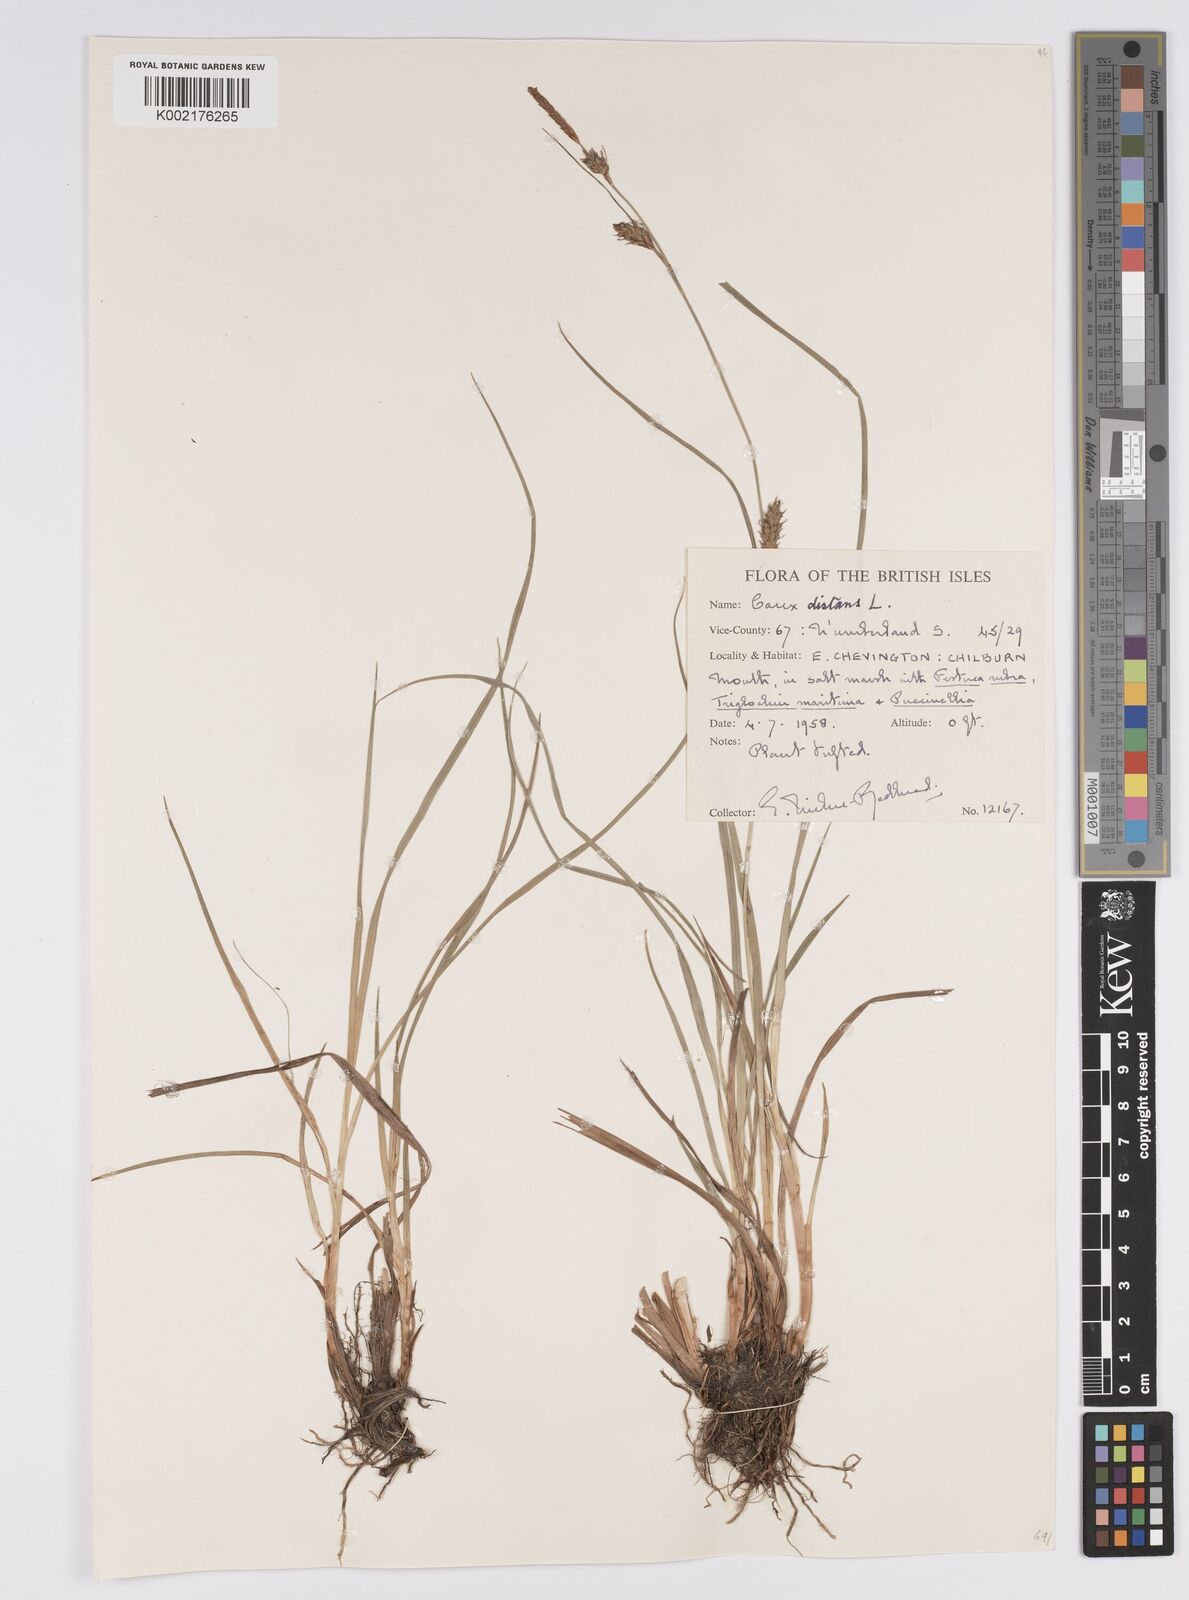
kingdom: Plantae
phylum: Tracheophyta
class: Liliopsida
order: Poales
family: Cyperaceae
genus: Carex
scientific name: Carex distans
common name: Distant sedge
